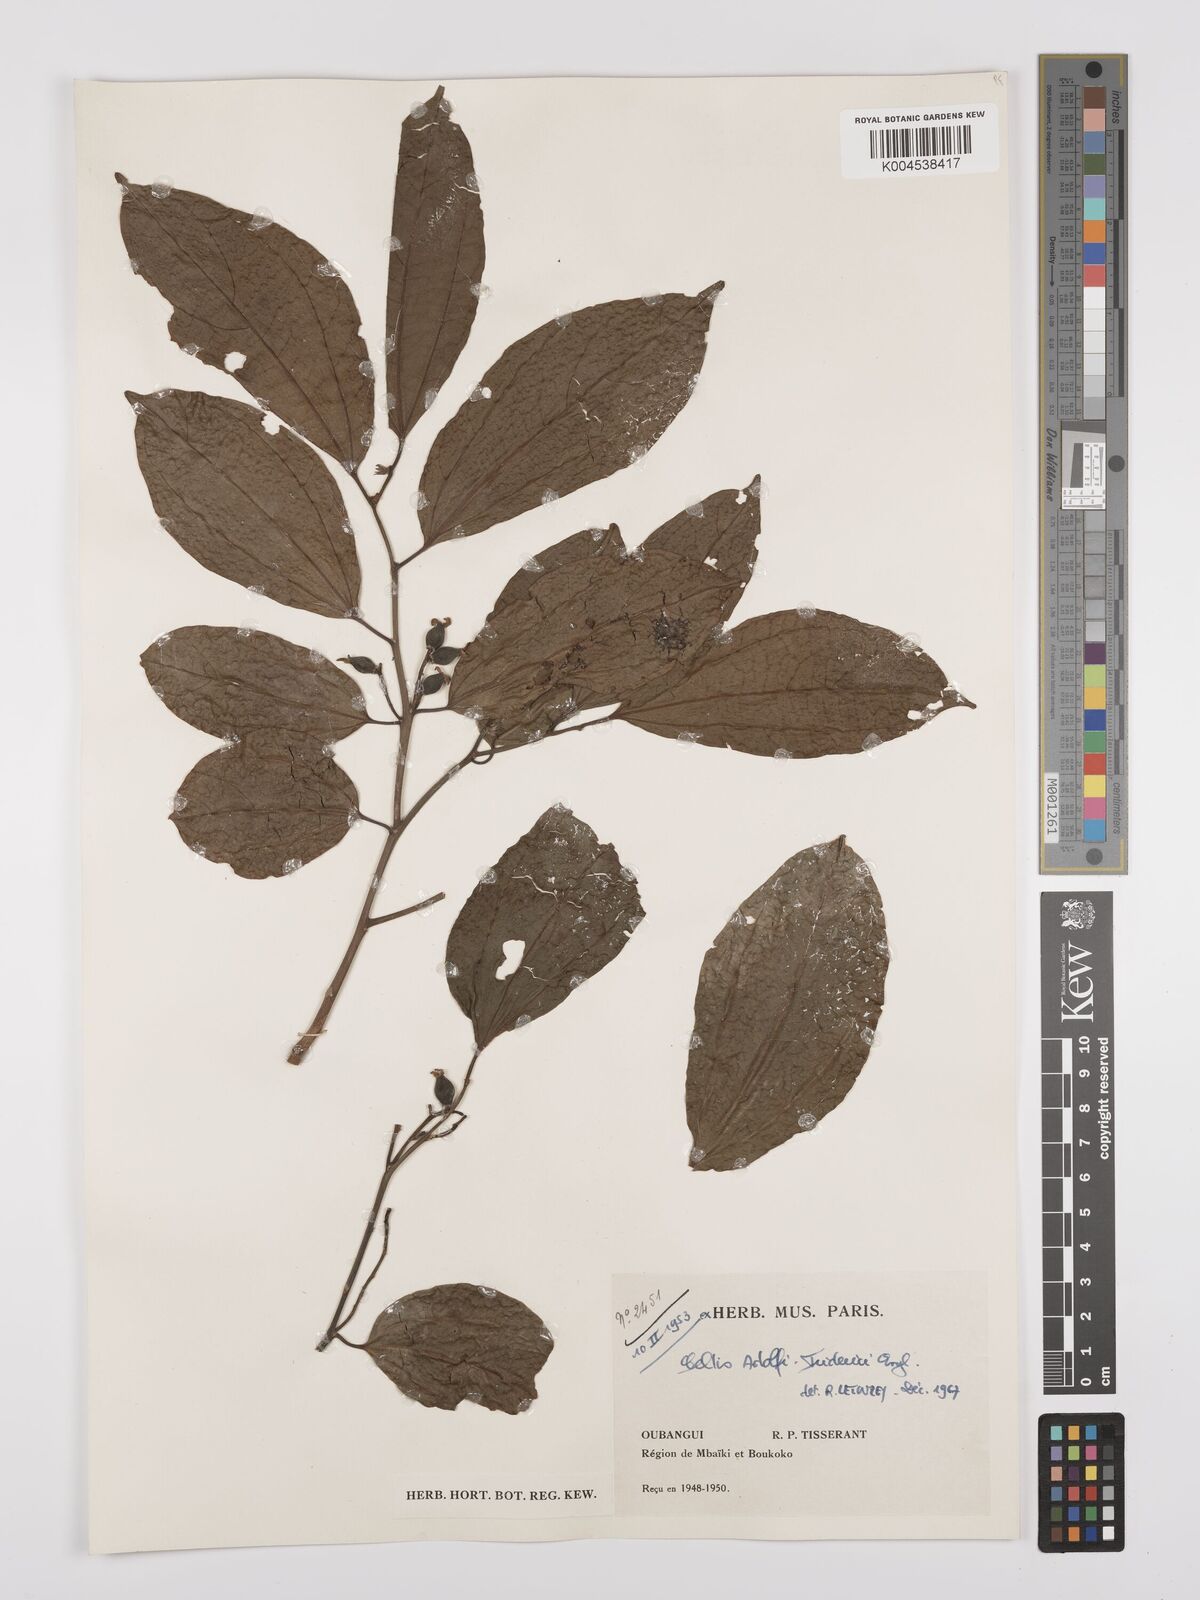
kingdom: Plantae
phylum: Tracheophyta
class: Magnoliopsida
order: Rosales
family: Cannabaceae
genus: Celtis
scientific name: Celtis adolfi-friderici
